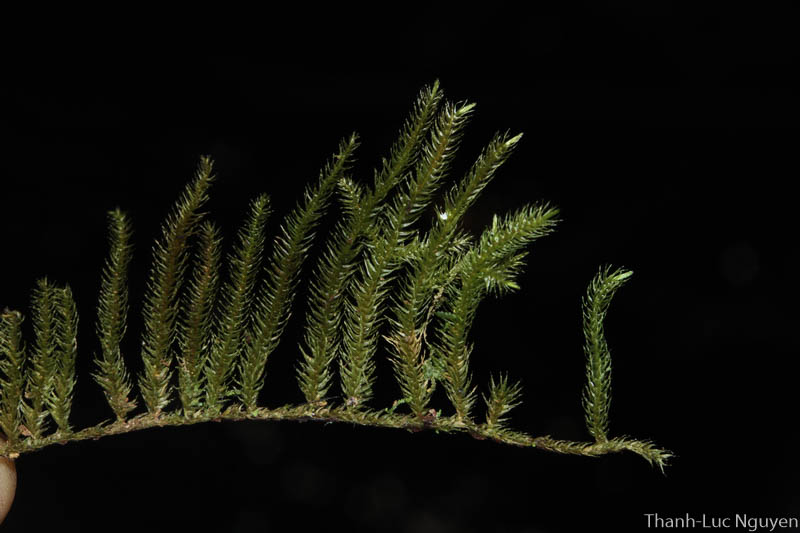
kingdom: Plantae
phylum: Bryophyta
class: Bryopsida
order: Hypnales
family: Meteoriaceae
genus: Trachypodopsis
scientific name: Trachypodopsis
